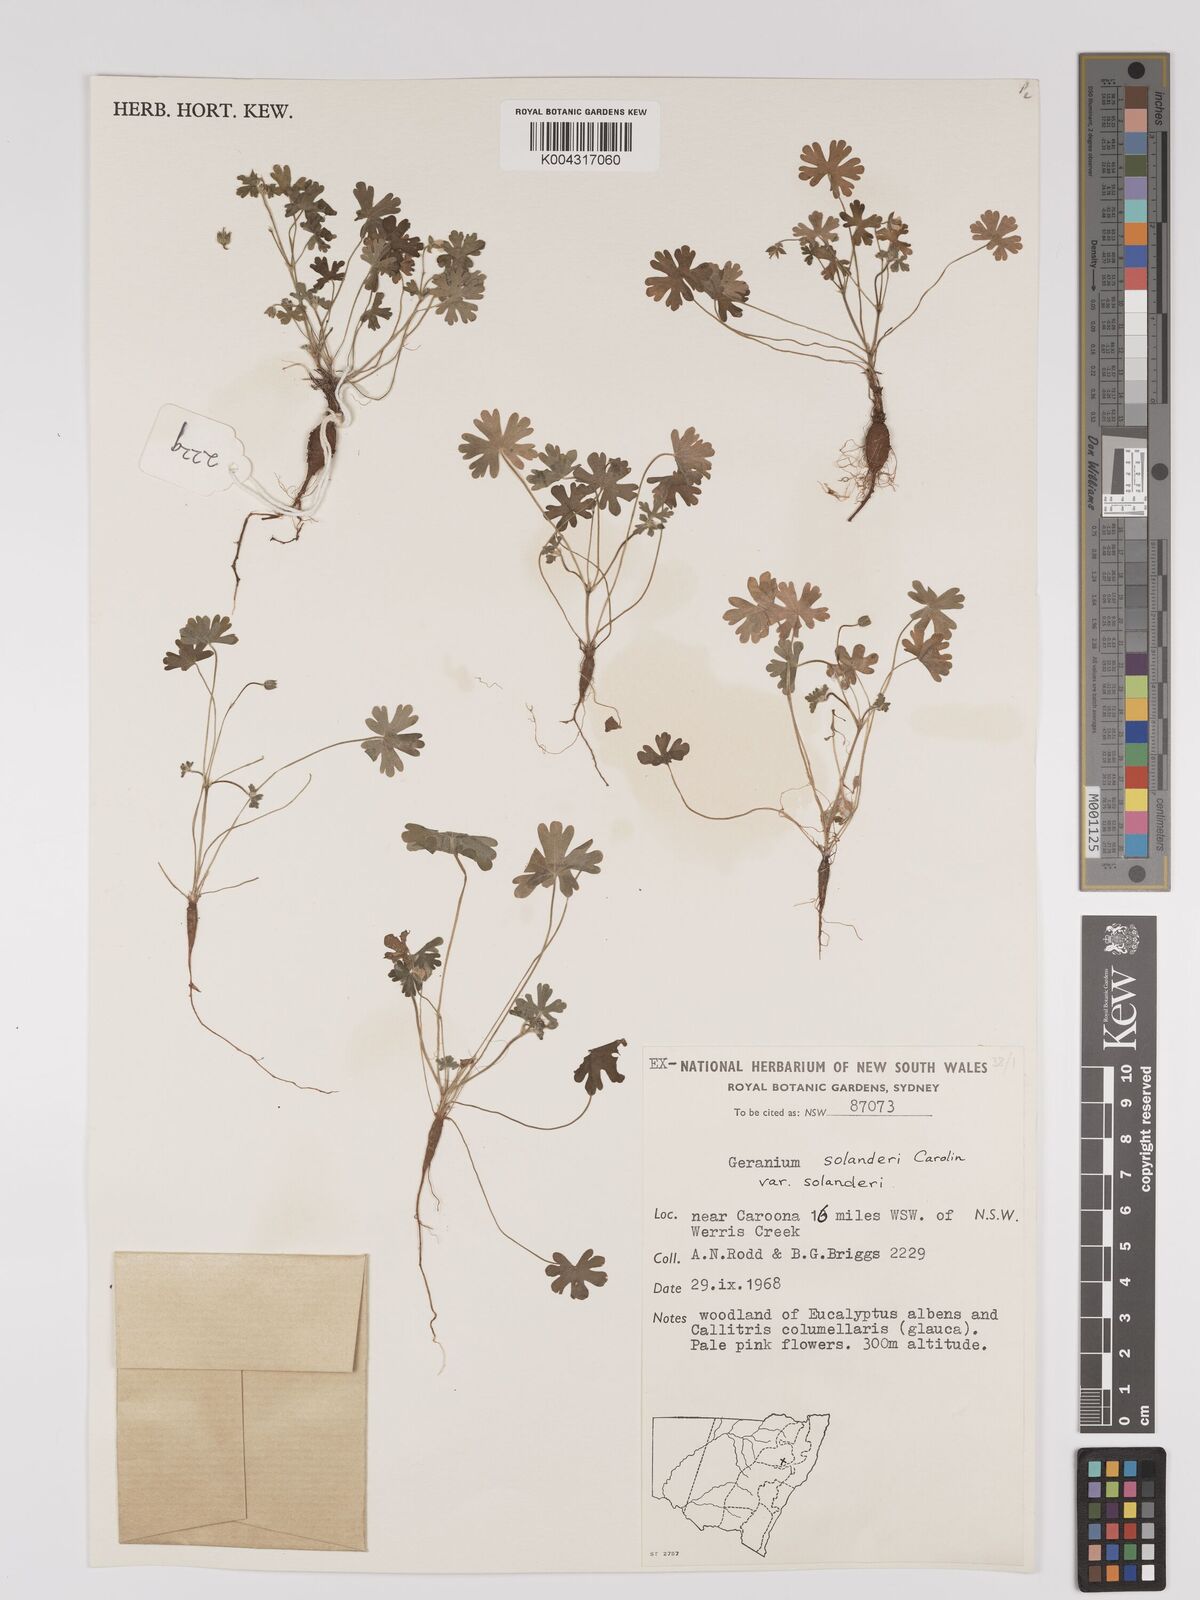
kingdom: Plantae
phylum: Tracheophyta
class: Magnoliopsida
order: Geraniales
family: Geraniaceae
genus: Geranium
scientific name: Geranium solanderi
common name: Solander's geranium
